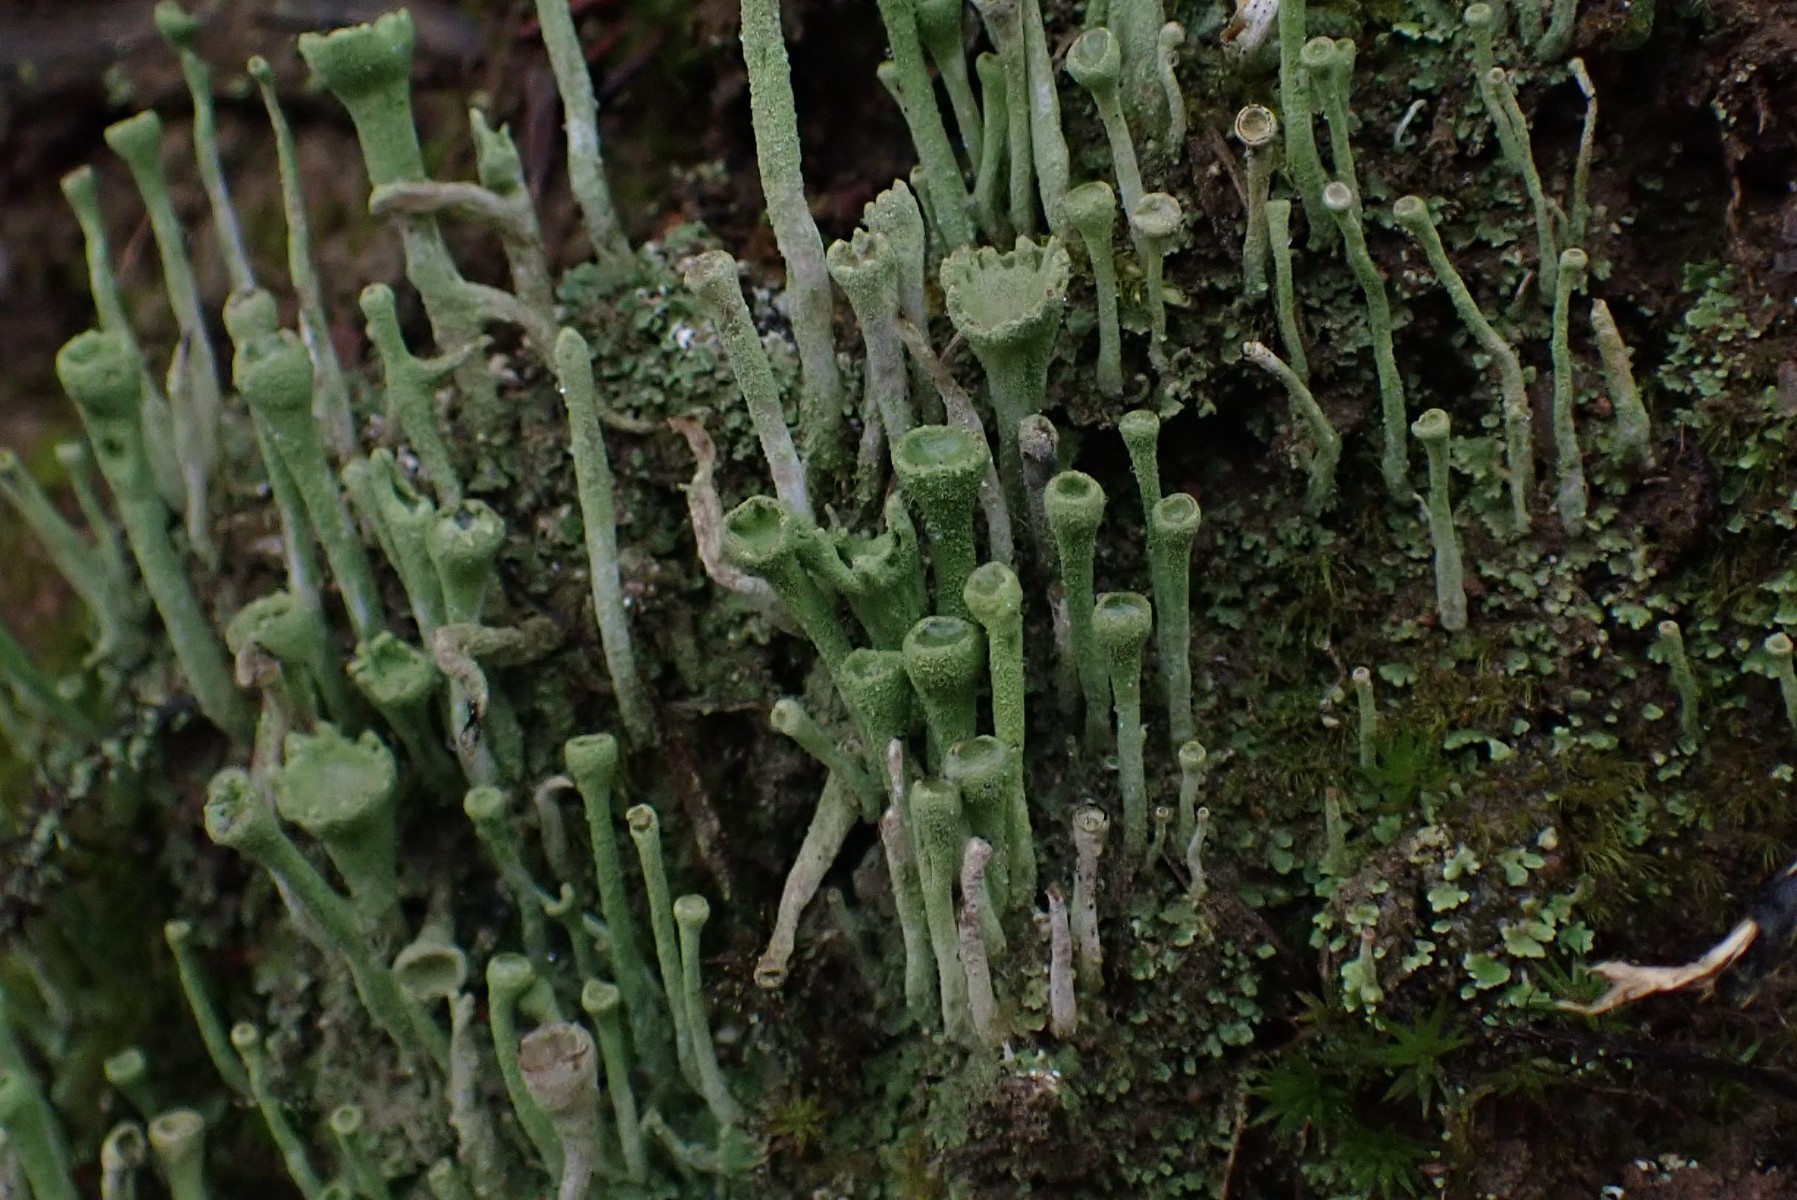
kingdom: Fungi
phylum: Ascomycota
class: Lecanoromycetes
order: Lecanorales
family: Cladoniaceae
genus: Cladonia
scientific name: Cladonia fimbriata
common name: bleggrøn bægerlav
